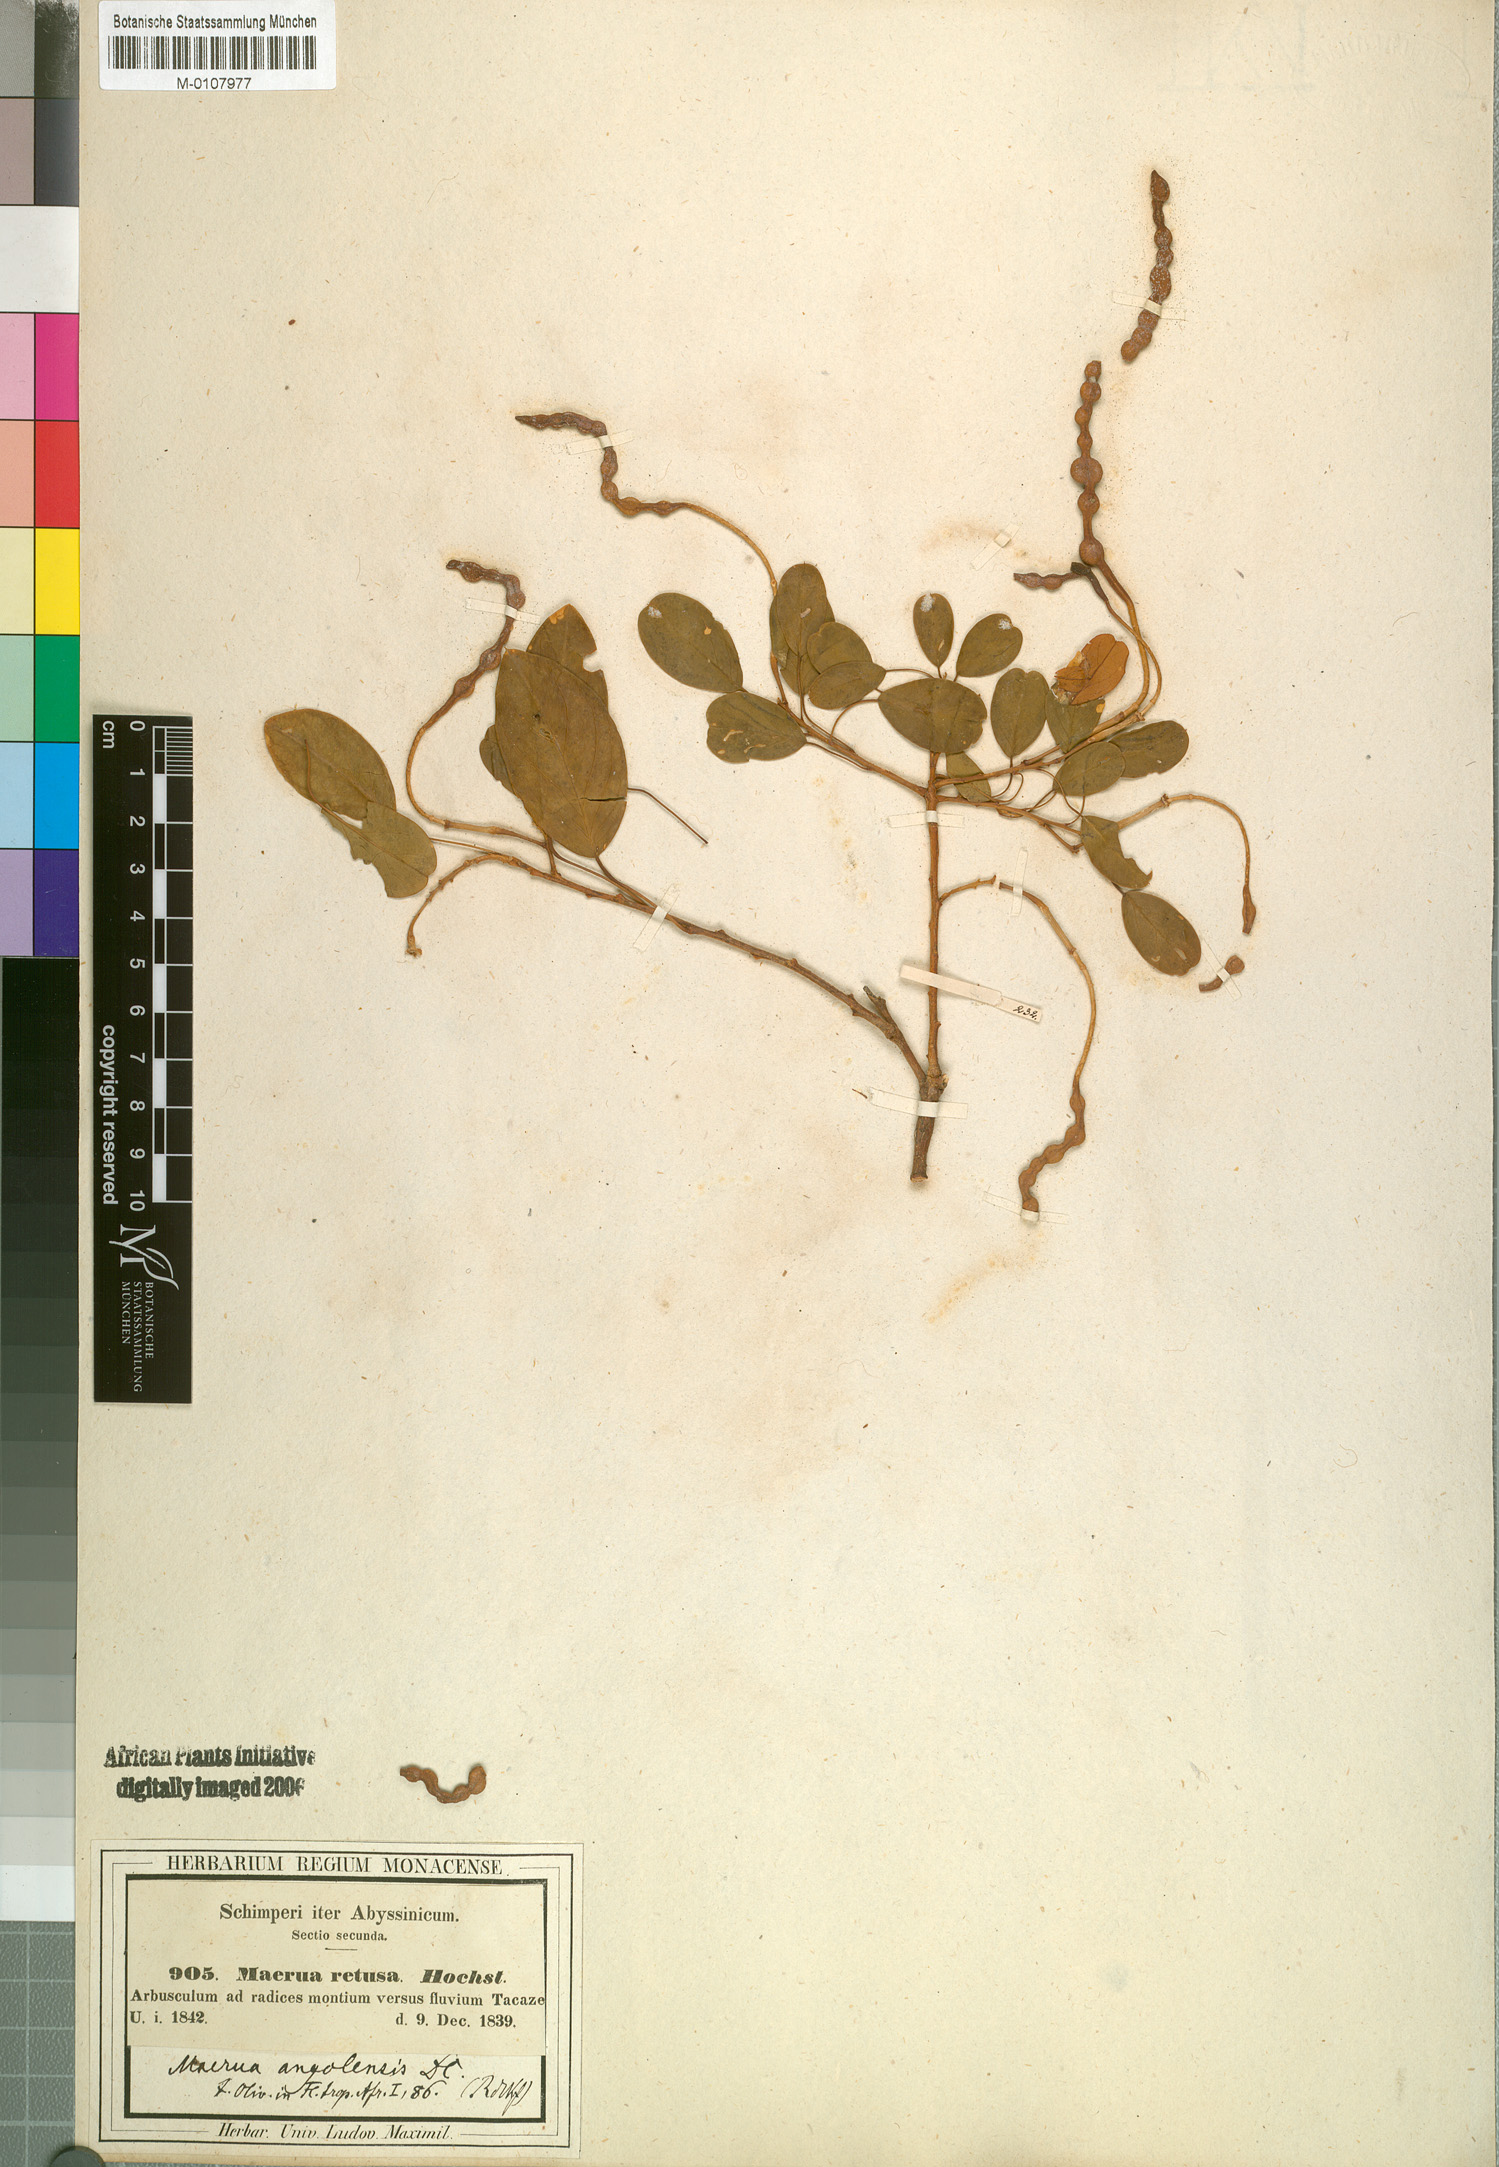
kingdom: Plantae
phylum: Tracheophyta
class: Magnoliopsida
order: Brassicales
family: Capparaceae
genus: Maerua
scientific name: Maerua angolensis
